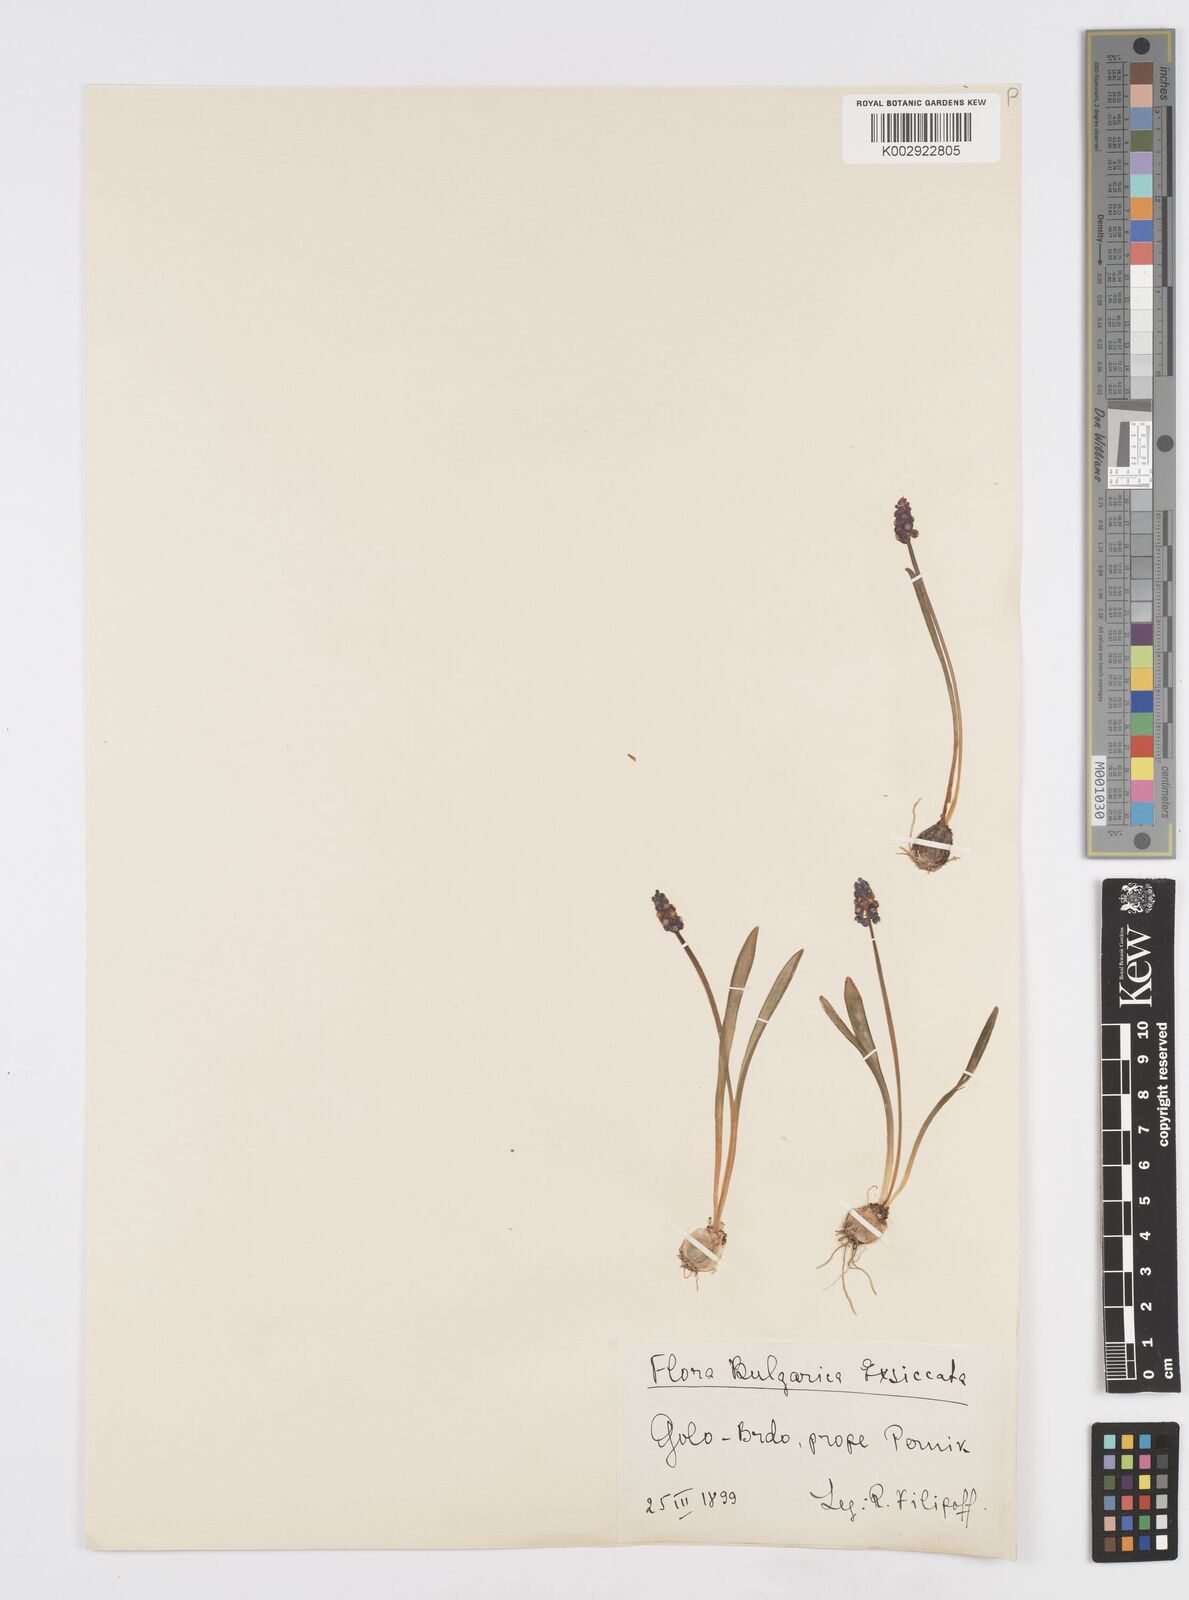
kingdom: Plantae
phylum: Tracheophyta
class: Liliopsida
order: Asparagales
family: Asparagaceae
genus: Muscari
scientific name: Muscari botryoides
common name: Compact grape-hyacinth
